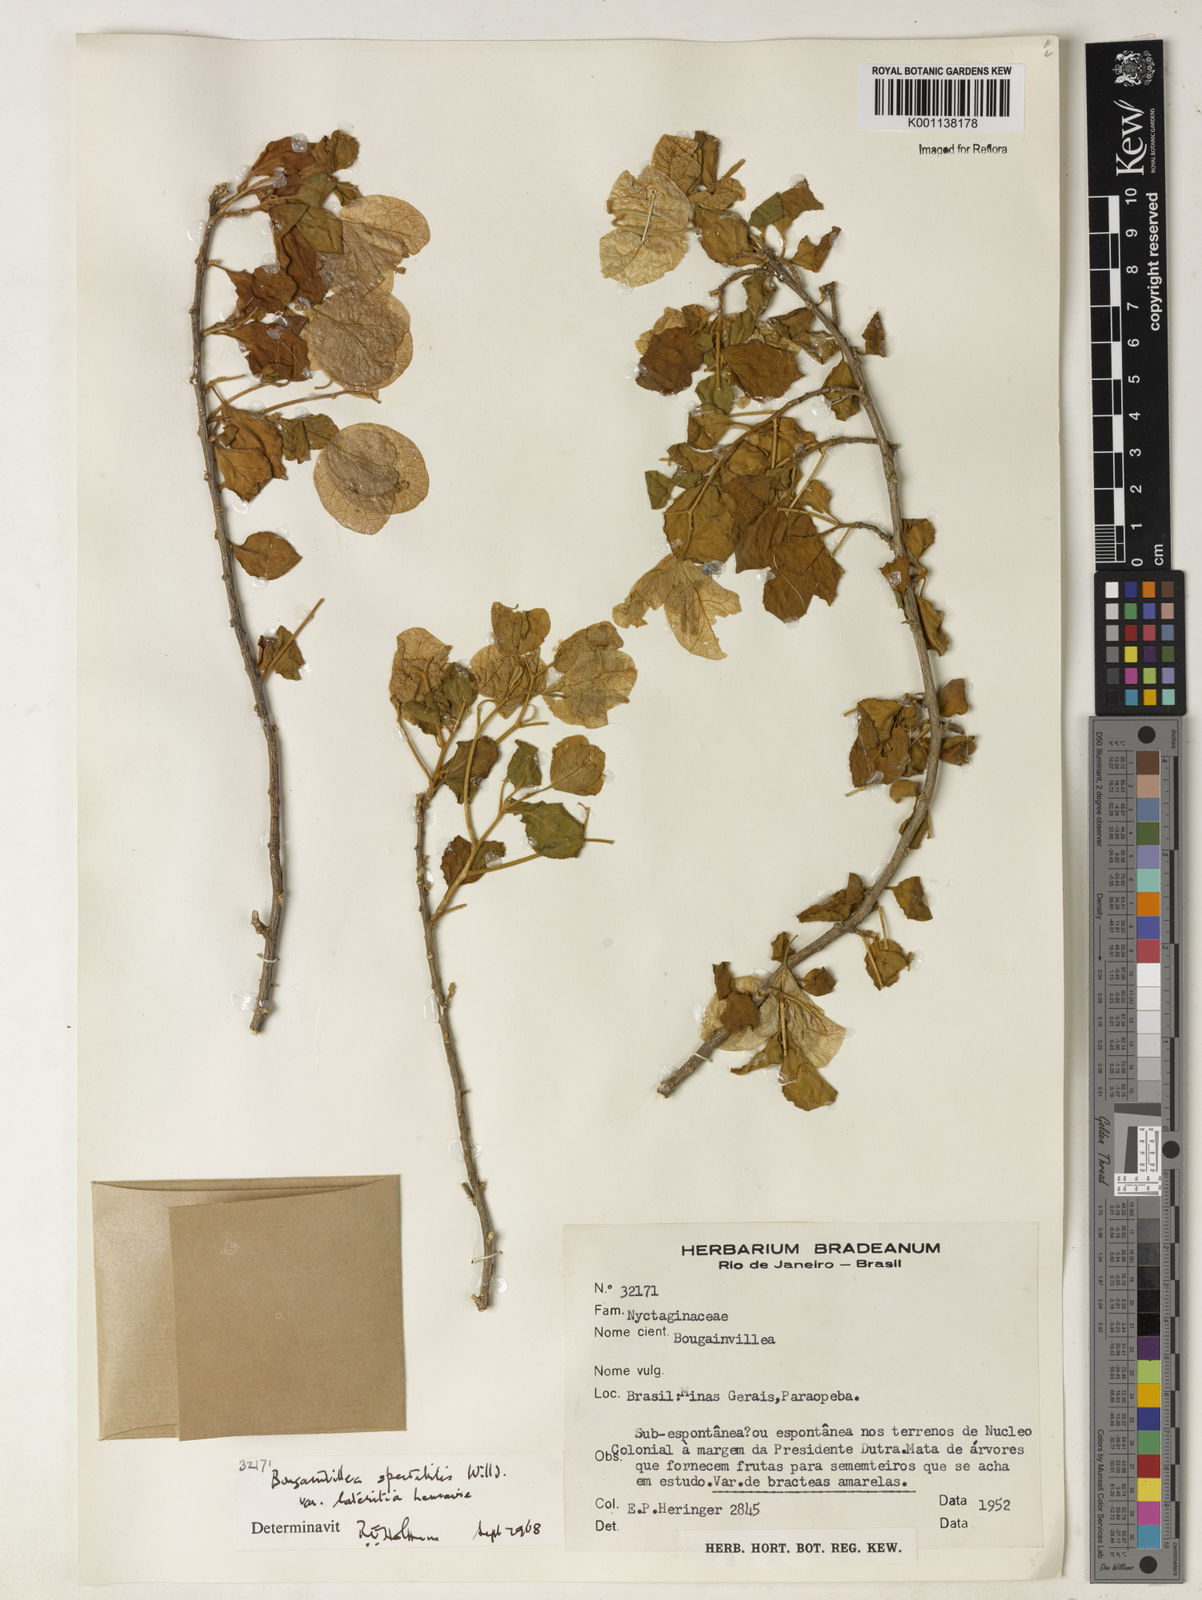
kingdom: Plantae
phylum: Tracheophyta
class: Magnoliopsida
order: Caryophyllales
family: Nyctaginaceae
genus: Bougainvillea
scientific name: Bougainvillea spectabilis
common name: Great bougainvillea
